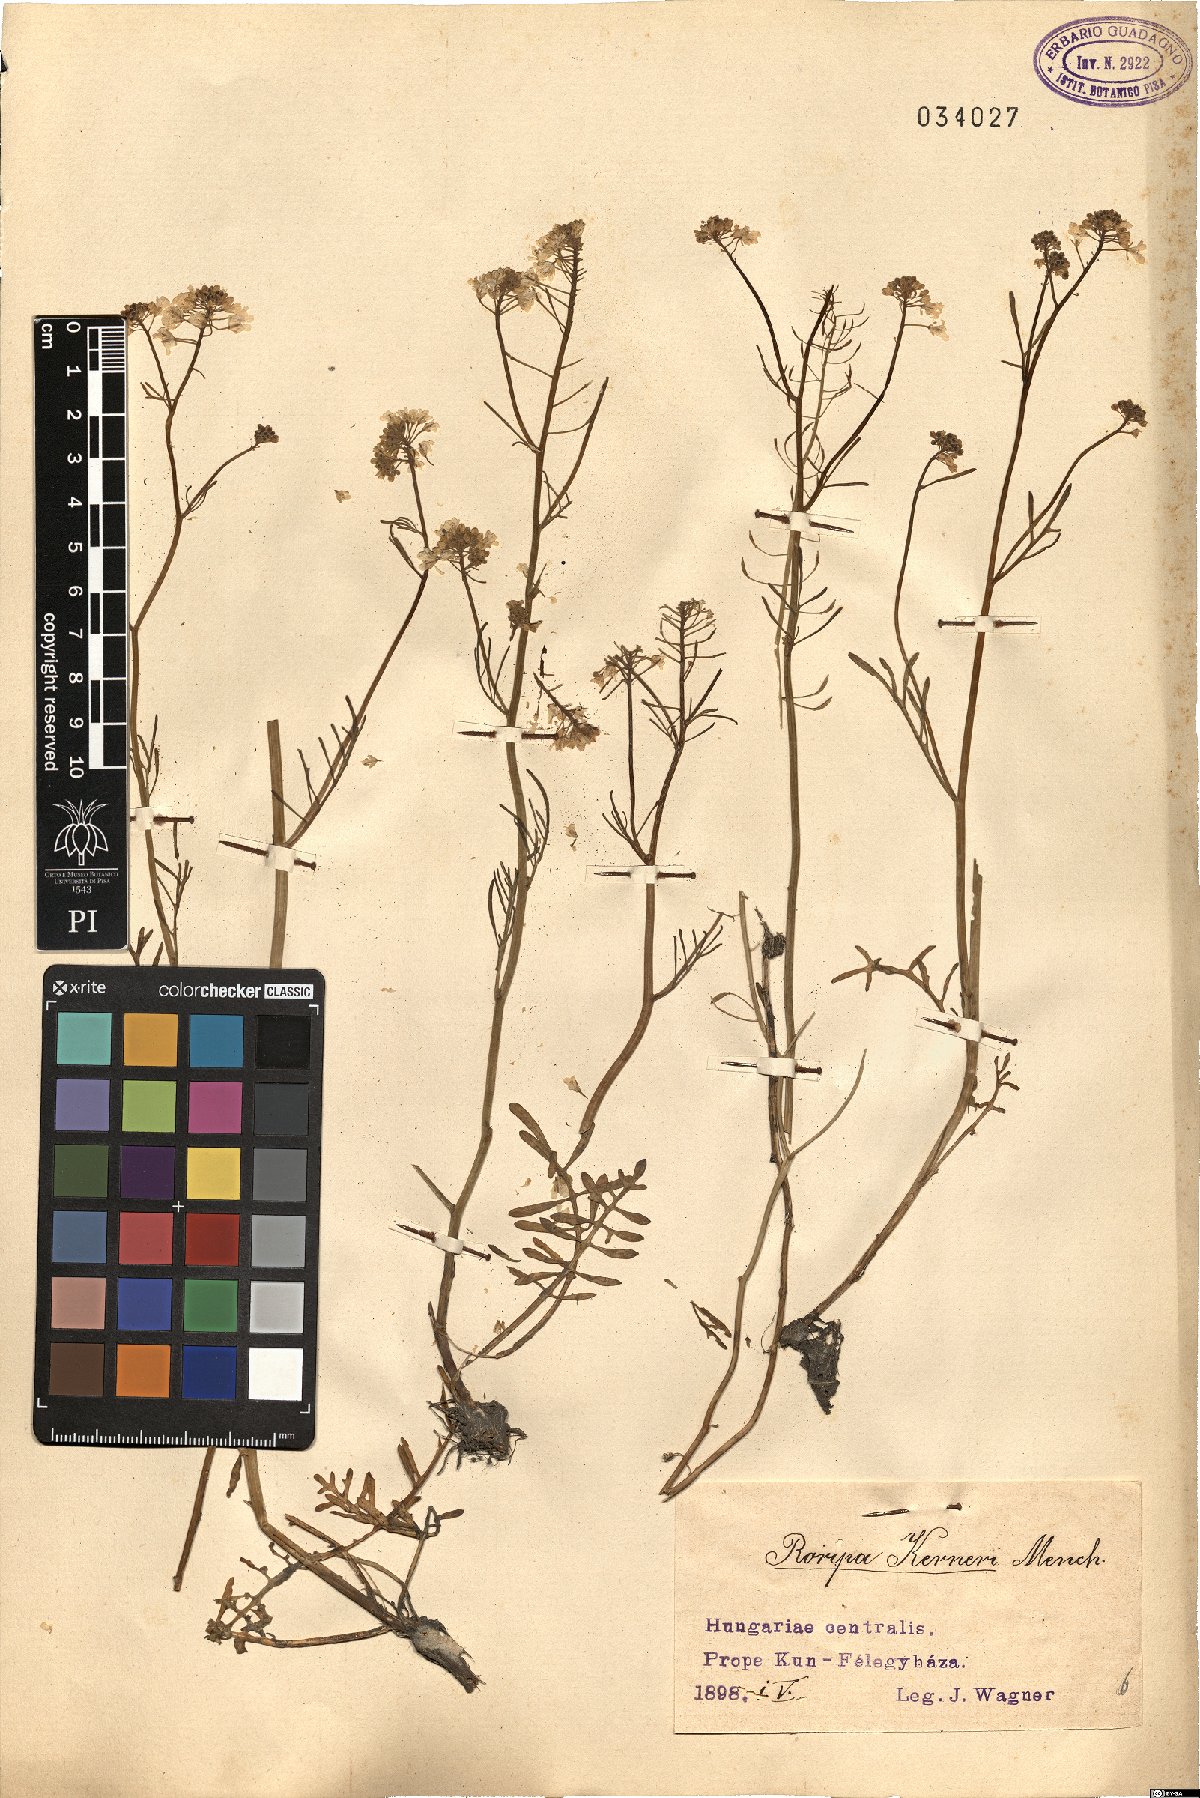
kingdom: Plantae
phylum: Tracheophyta
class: Magnoliopsida
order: Brassicales
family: Brassicaceae
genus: Rorippa
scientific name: Rorippa kerneri
